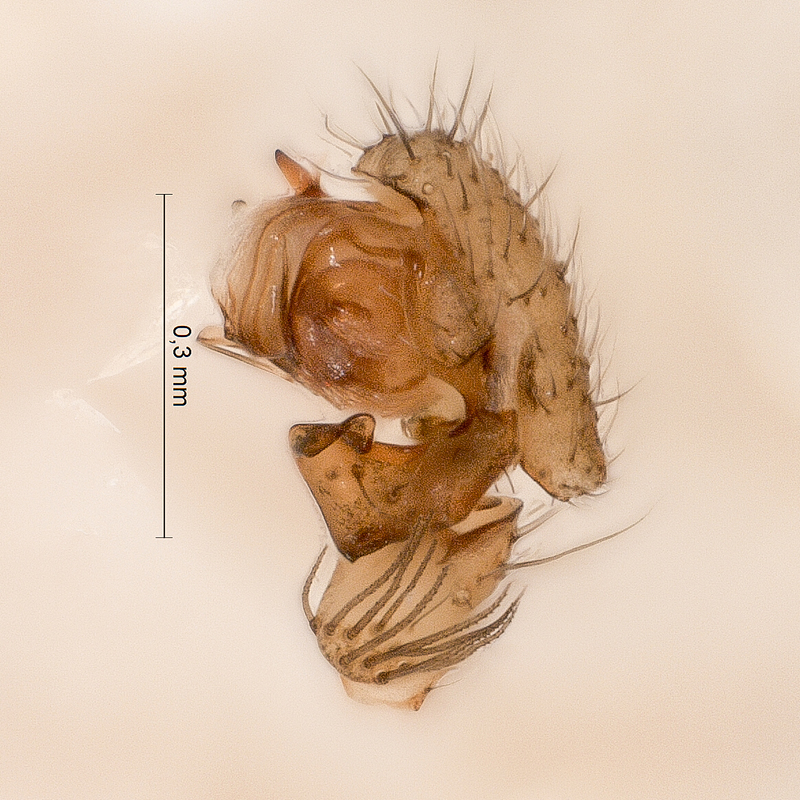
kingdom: Animalia
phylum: Arthropoda
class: Arachnida
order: Araneae
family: Linyphiidae
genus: Centromerita
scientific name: Centromerita concinna
